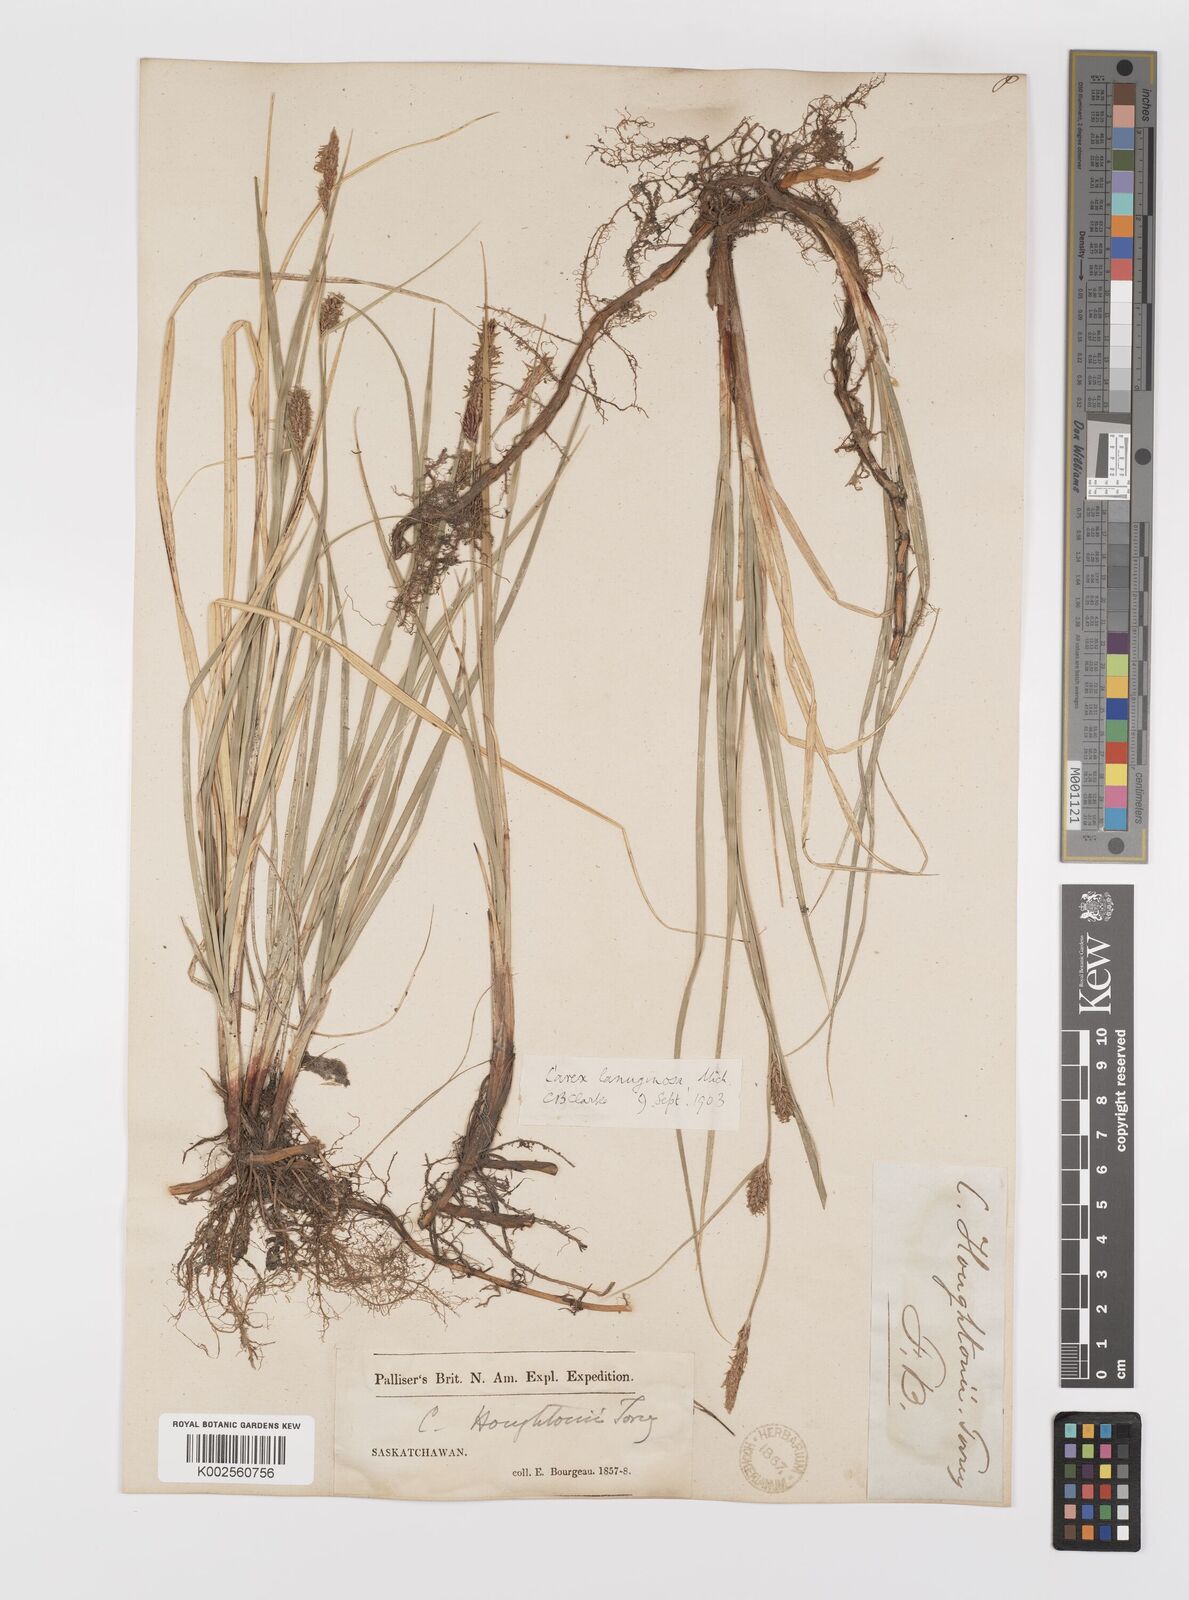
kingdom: Plantae
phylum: Tracheophyta
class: Liliopsida
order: Poales
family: Cyperaceae
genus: Carex
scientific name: Carex lasiocarpa
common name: Slender sedge
